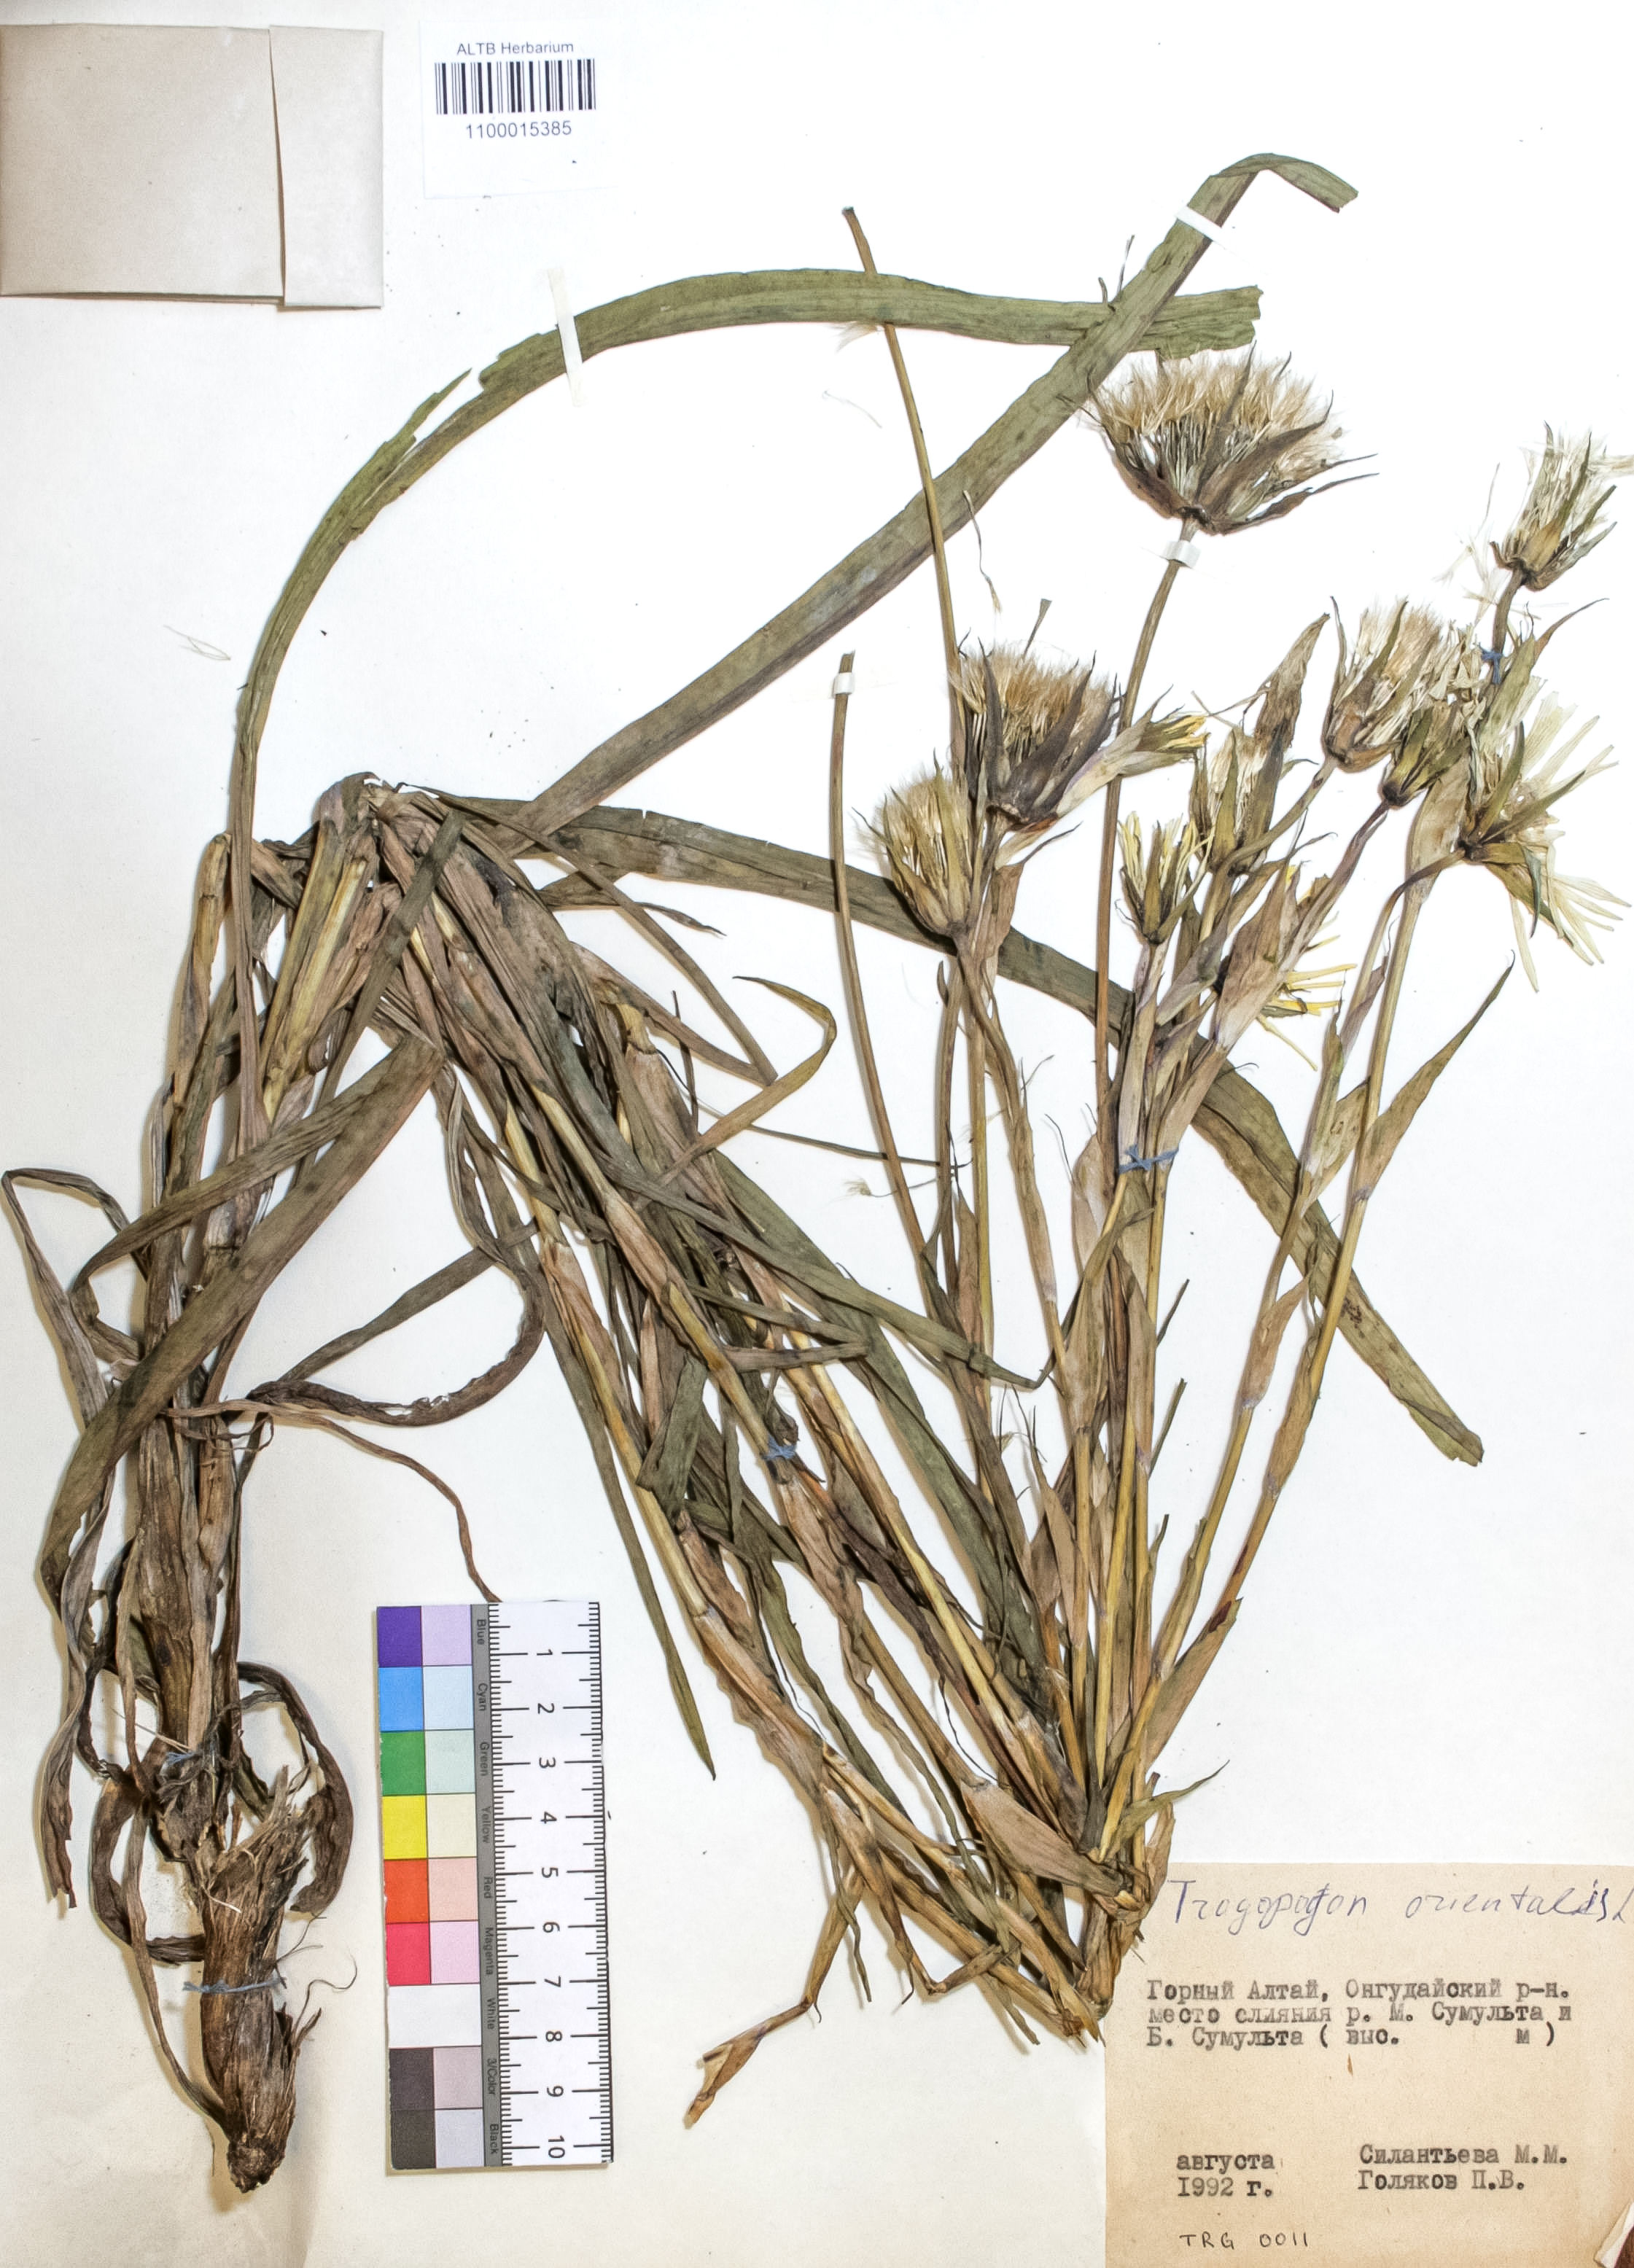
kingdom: Plantae
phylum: Tracheophyta
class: Magnoliopsida
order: Asterales
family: Asteraceae
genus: Tragopogon
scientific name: Tragopogon orientalis
